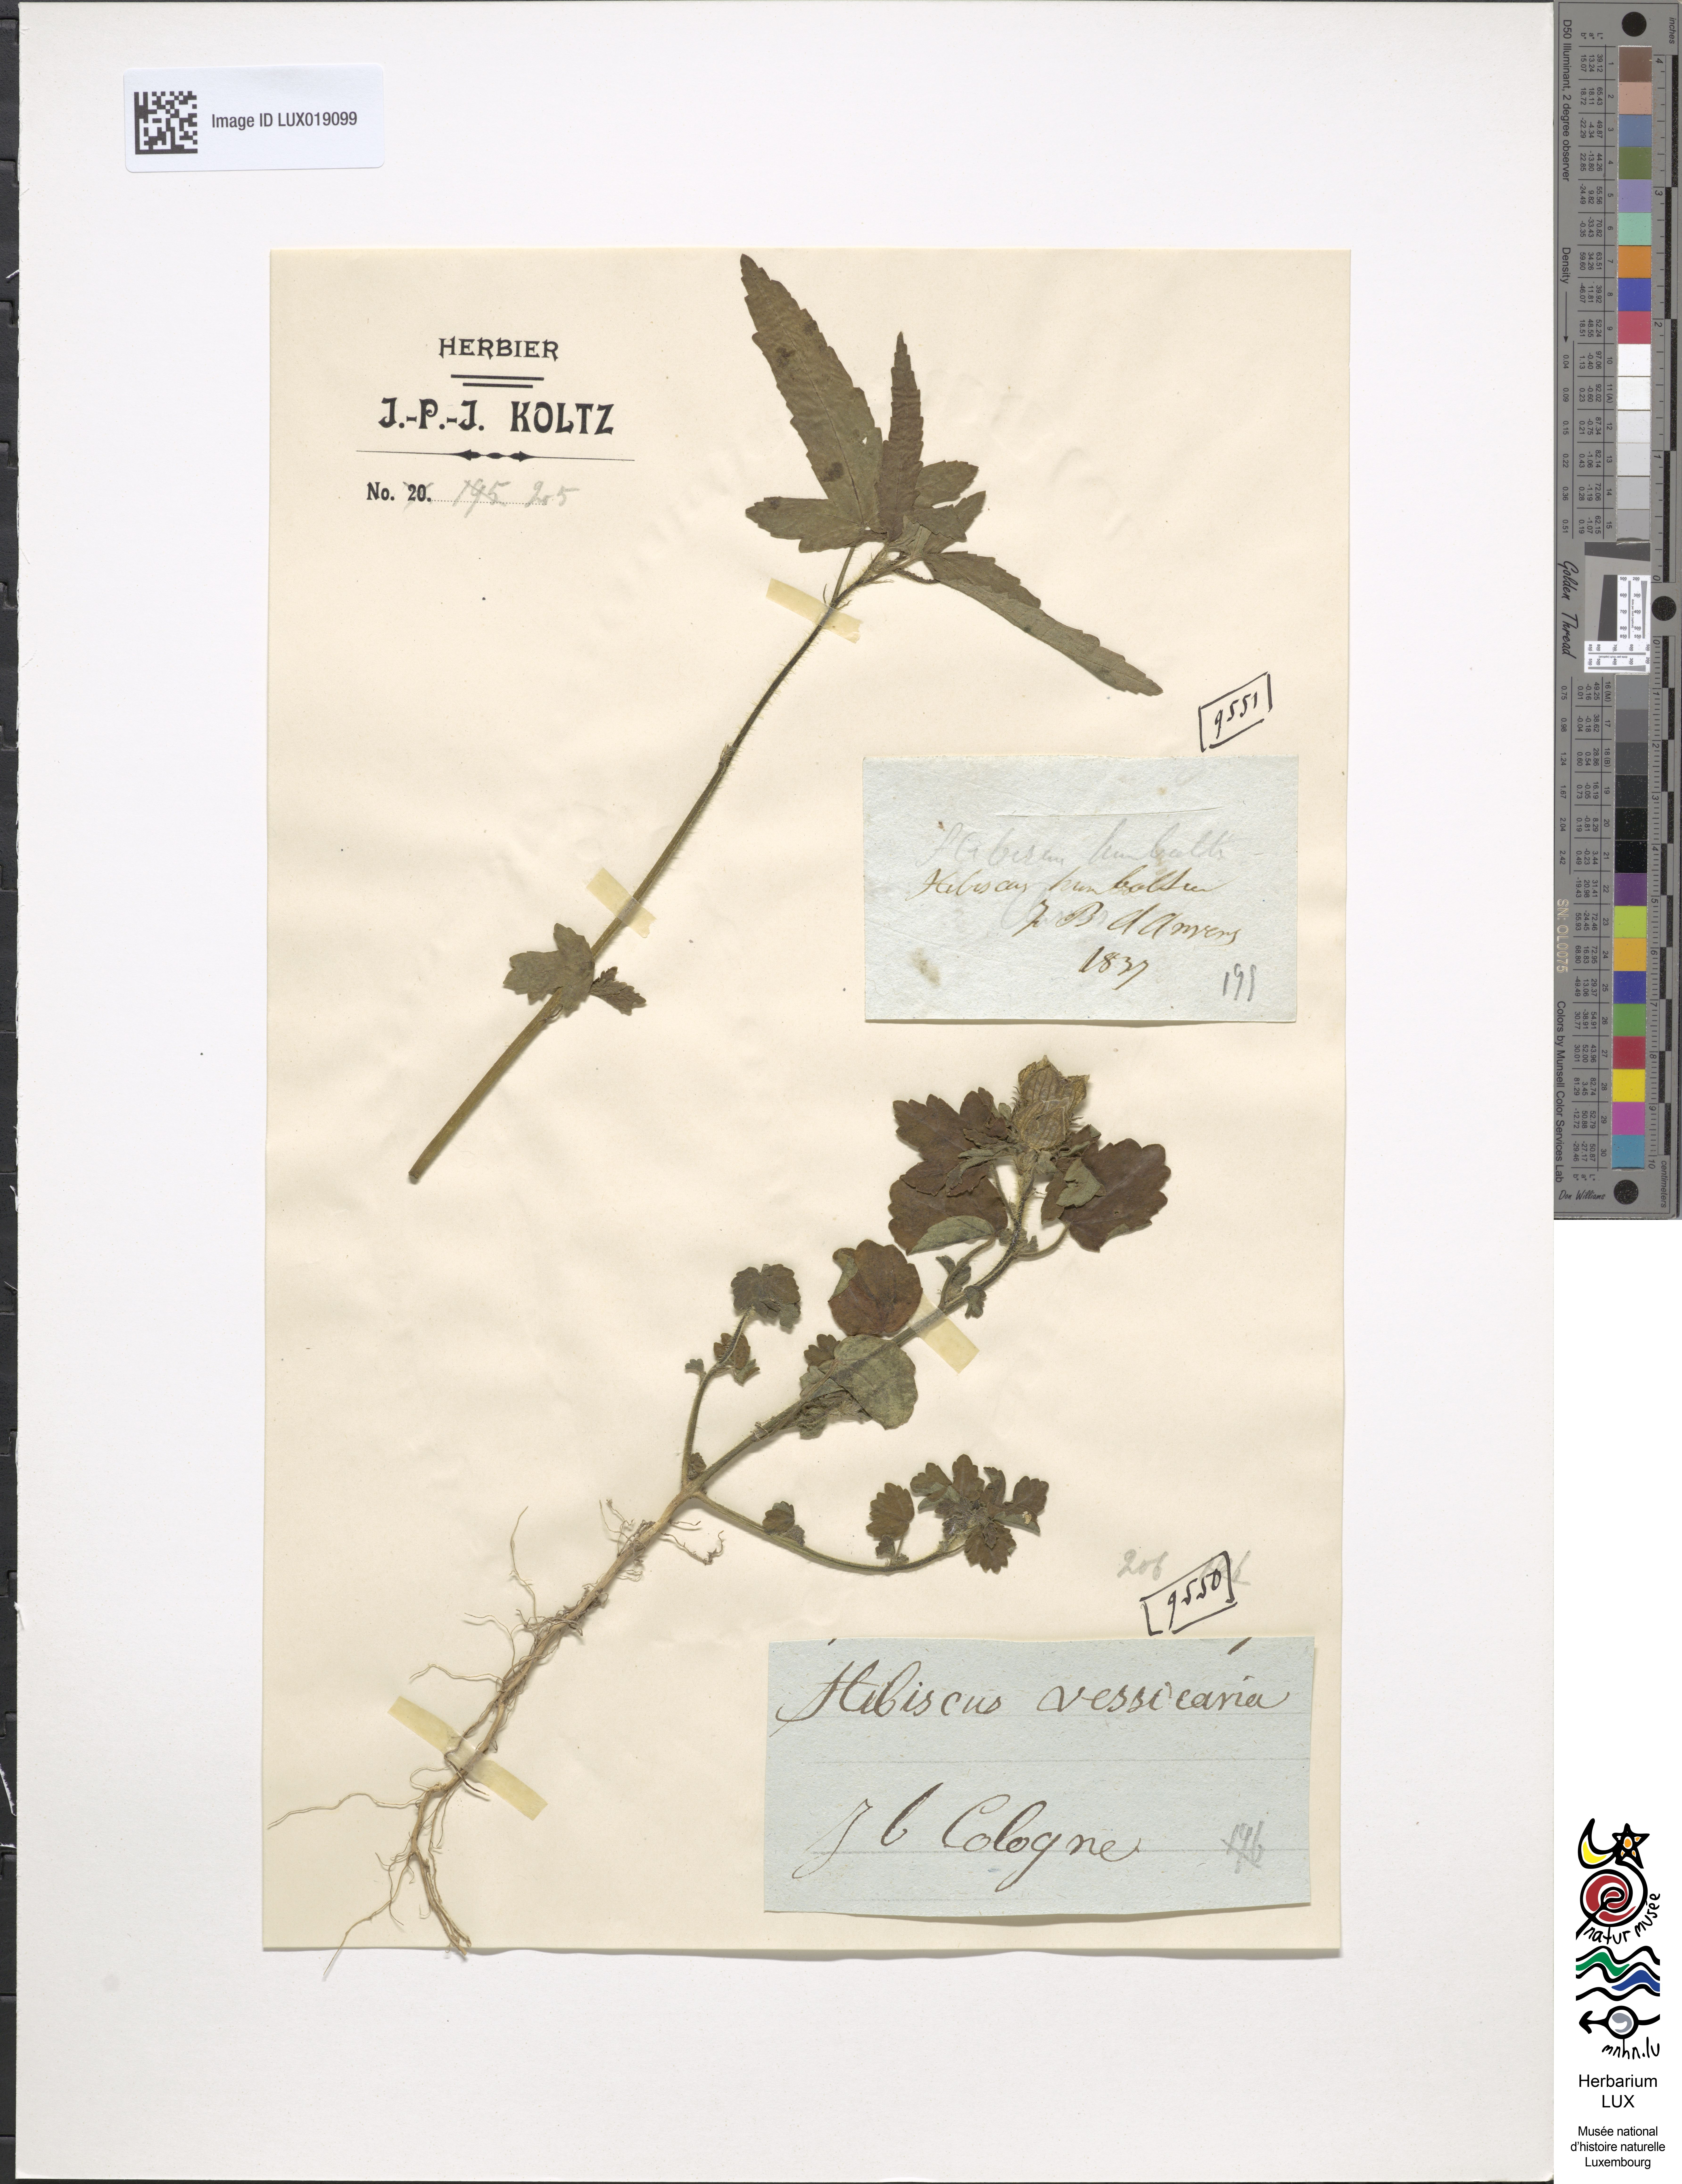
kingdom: Plantae
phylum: Tracheophyta
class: Magnoliopsida
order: Malvales
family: Malvaceae
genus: Hibiscus
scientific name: Hibiscus
